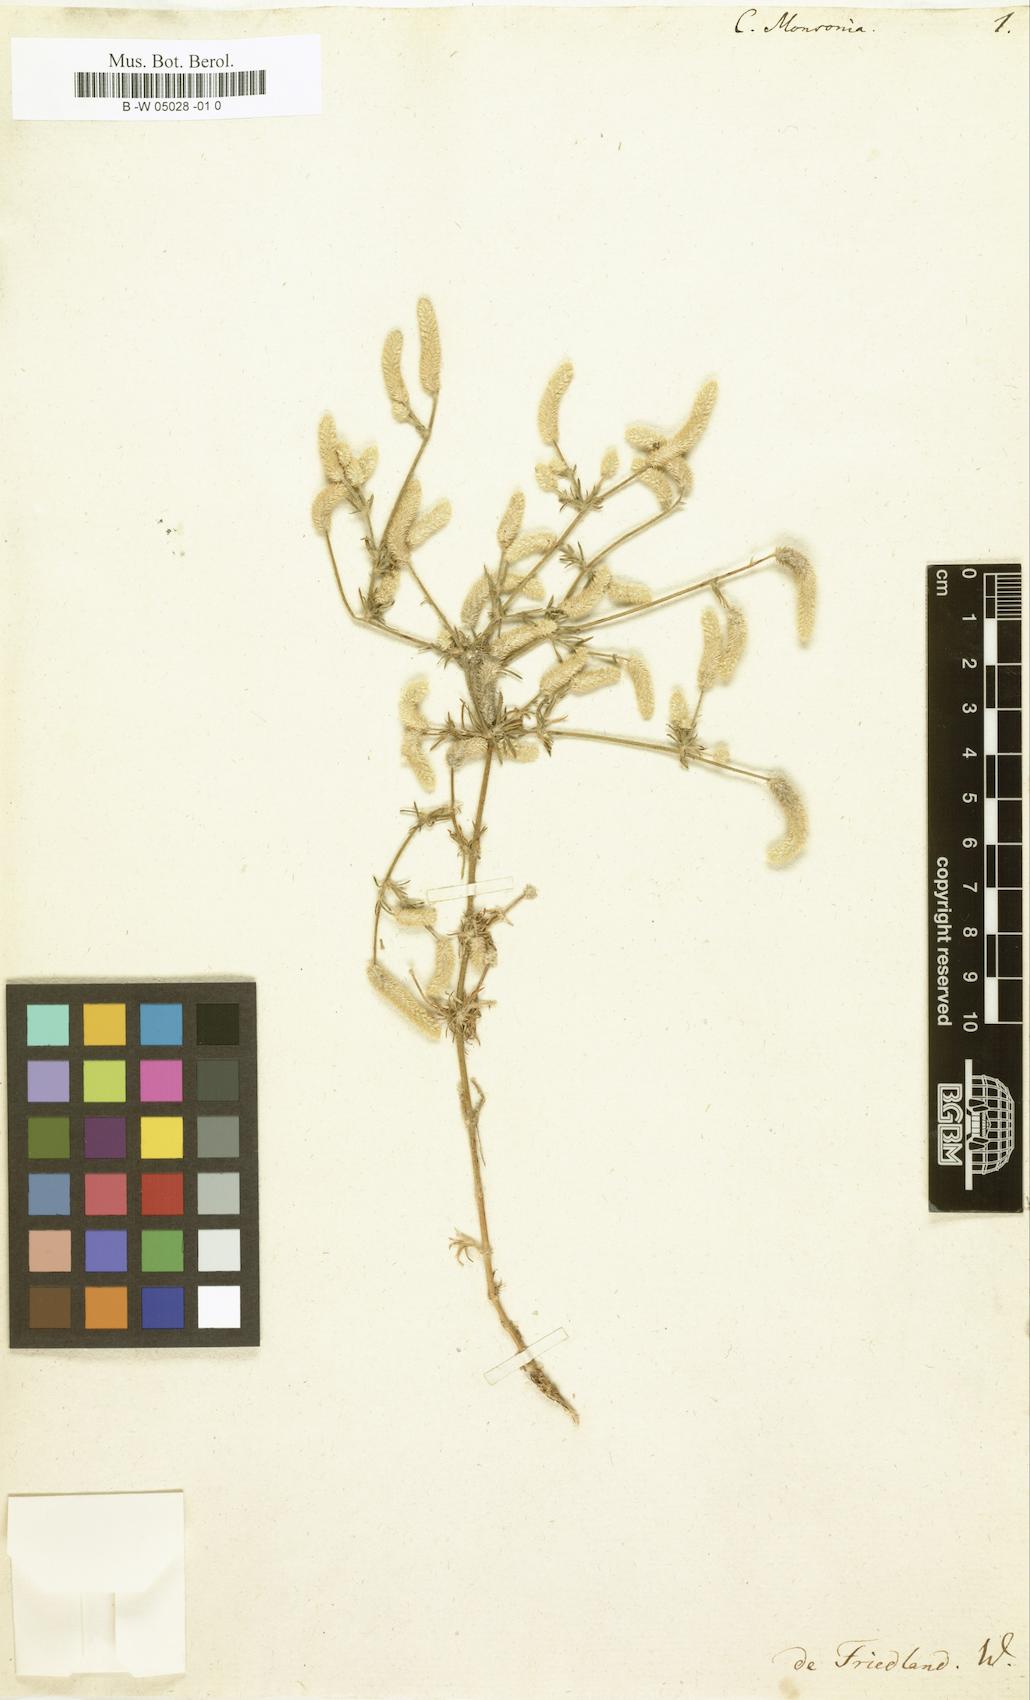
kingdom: Plantae
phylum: Tracheophyta
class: Magnoliopsida
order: Caryophyllales
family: Amaranthaceae
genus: Aerva
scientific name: Aerva monsonia
